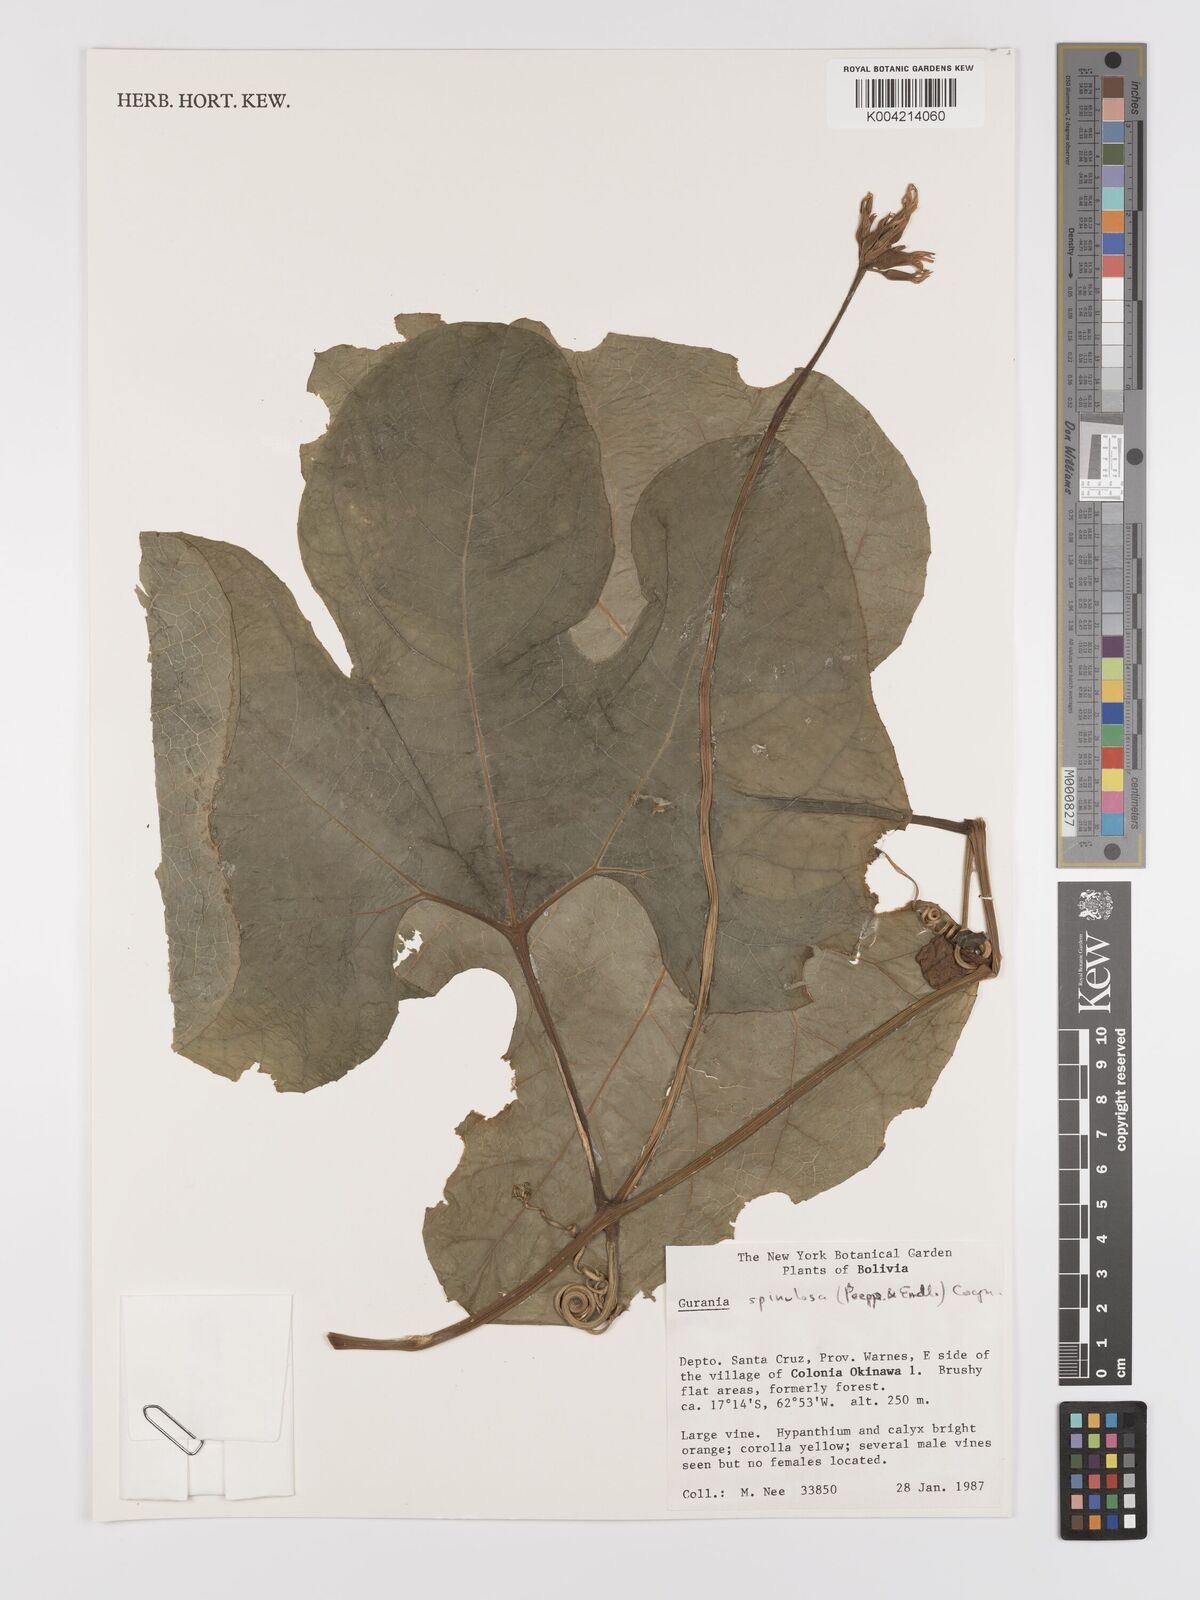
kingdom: Plantae
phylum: Tracheophyta
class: Magnoliopsida
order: Cucurbitales
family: Cucurbitaceae
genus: Gurania
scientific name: Gurania lobata
